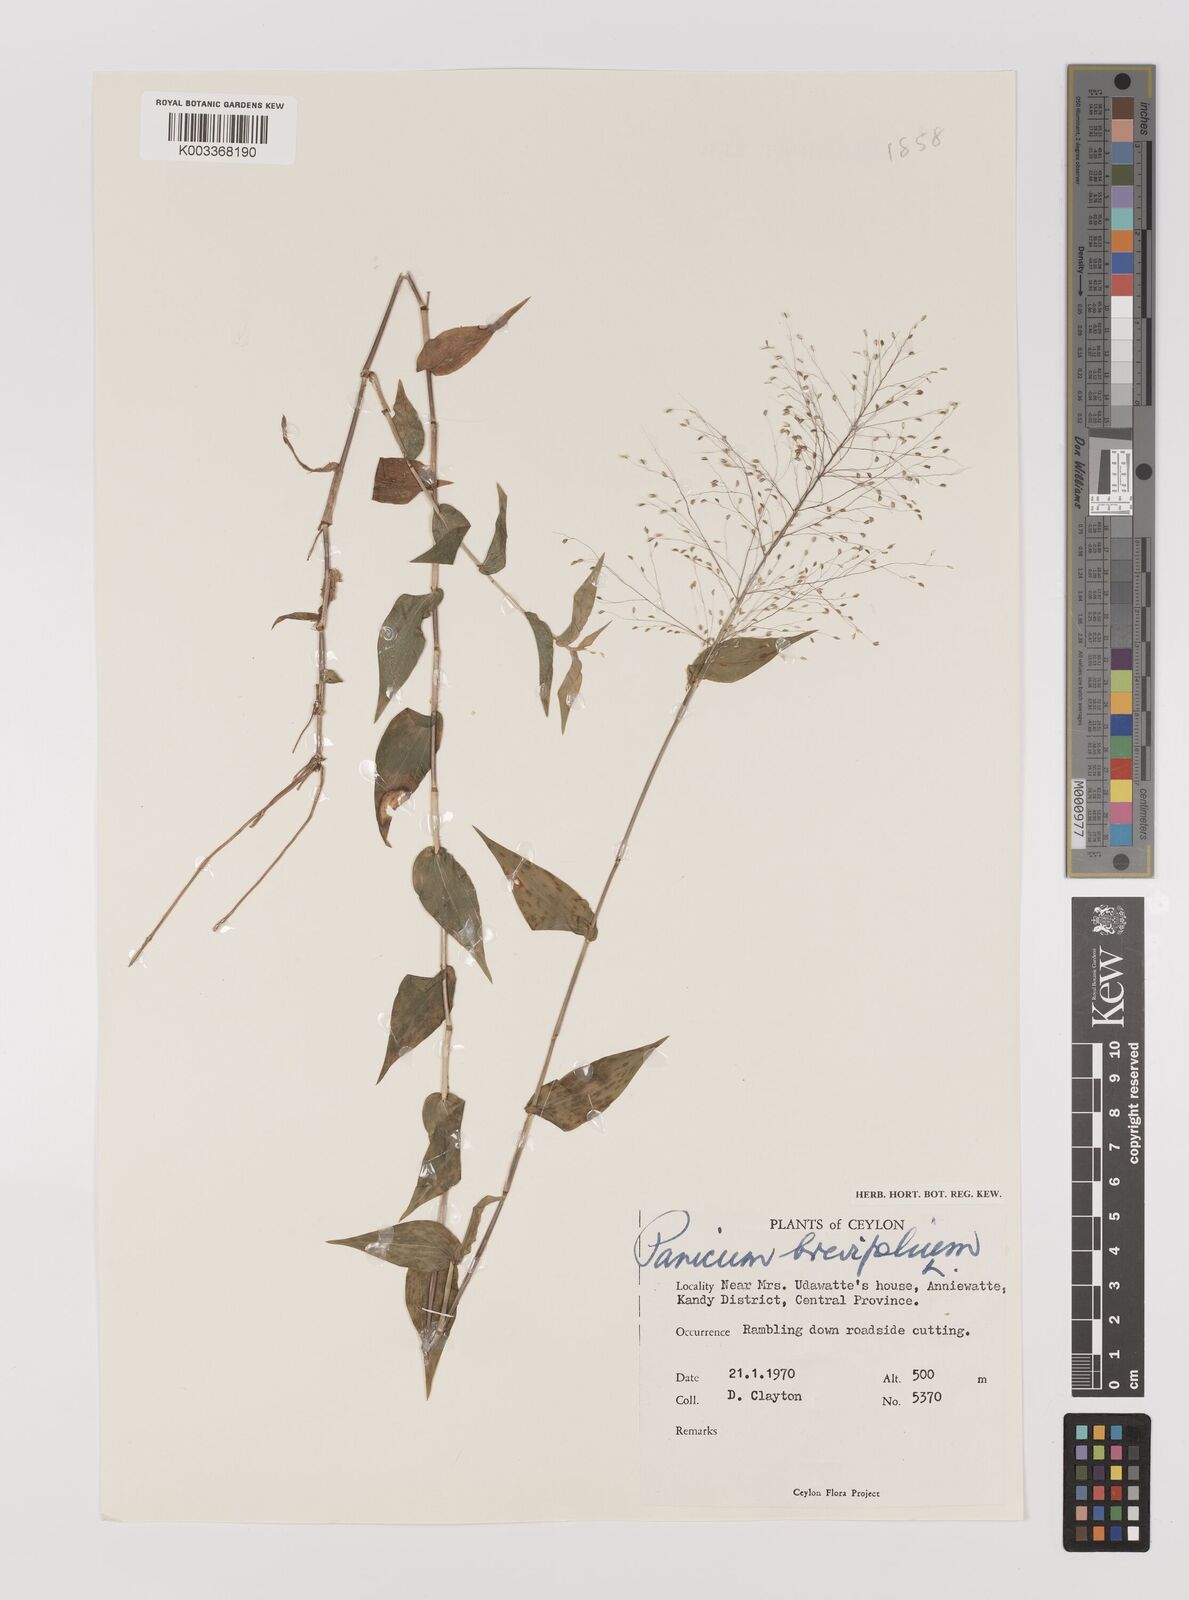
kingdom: Plantae
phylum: Tracheophyta
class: Liliopsida
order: Poales
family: Poaceae
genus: Panicum
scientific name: Panicum brevifolium
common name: Shortleaf panic grass
